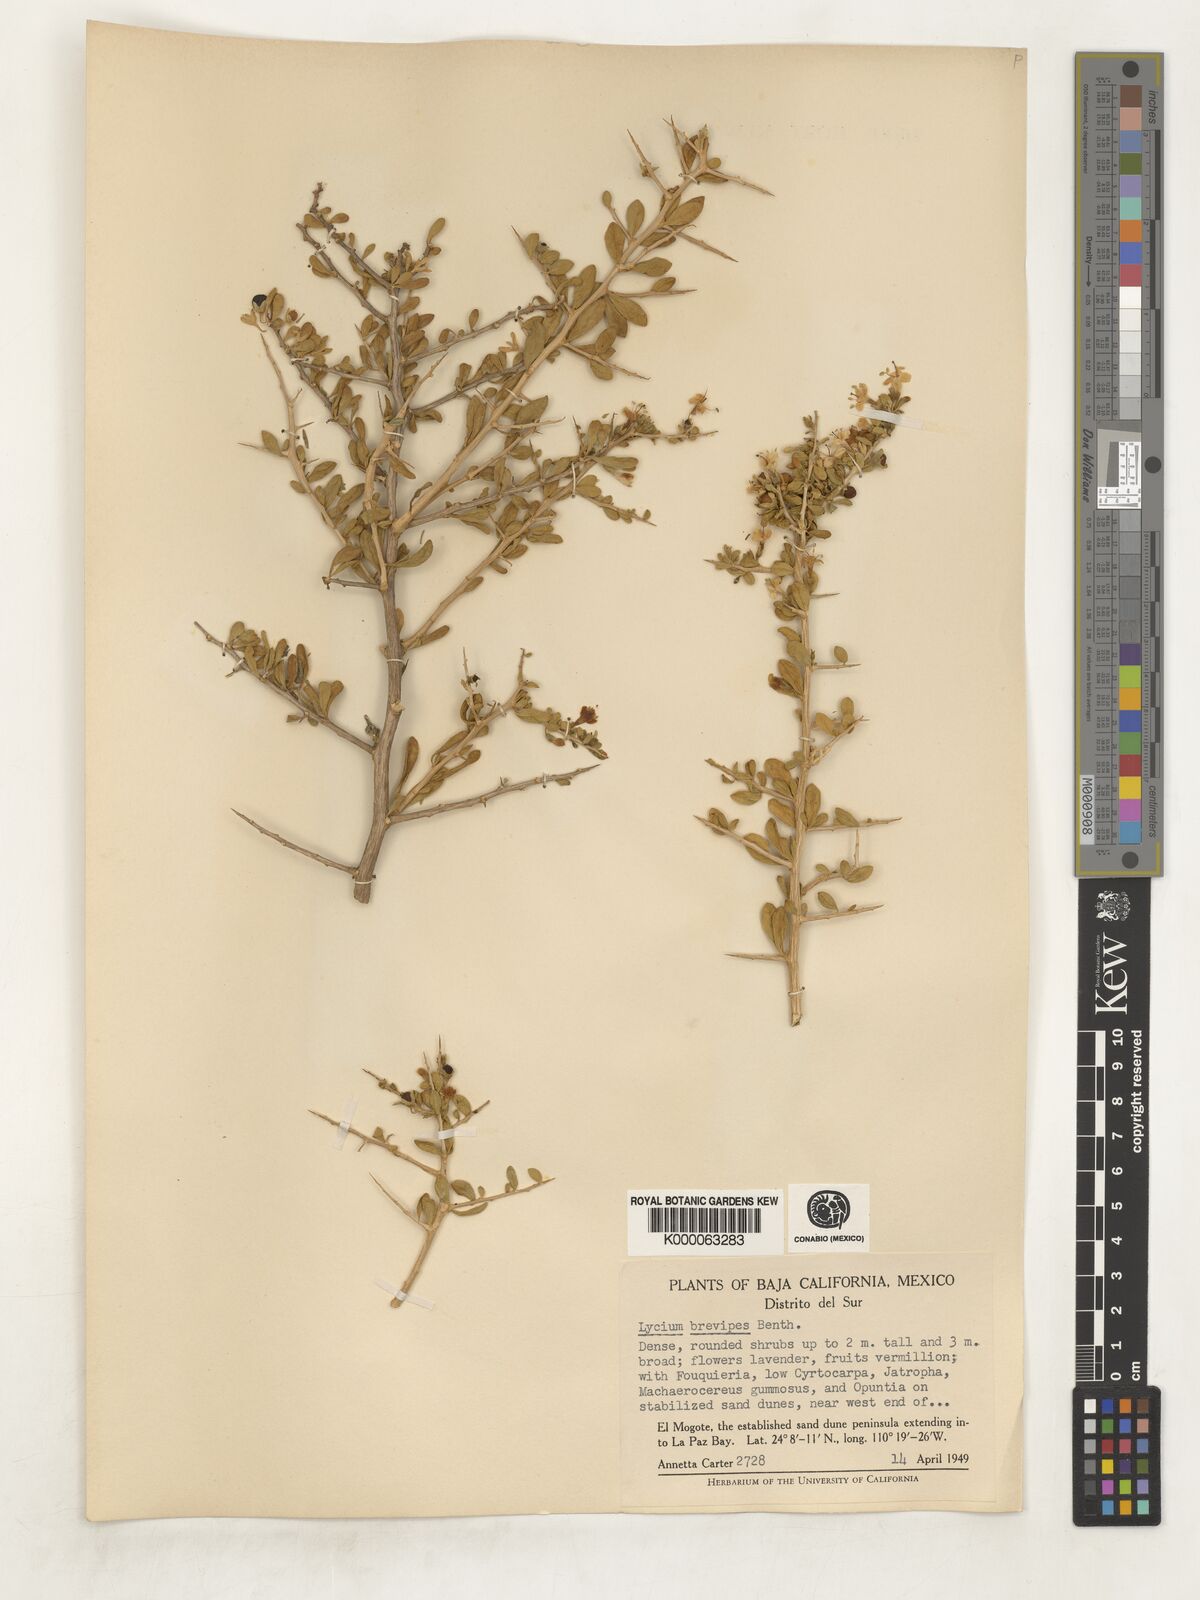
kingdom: Plantae
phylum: Tracheophyta
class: Magnoliopsida
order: Solanales
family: Solanaceae
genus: Lycium
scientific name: Lycium brevipes
